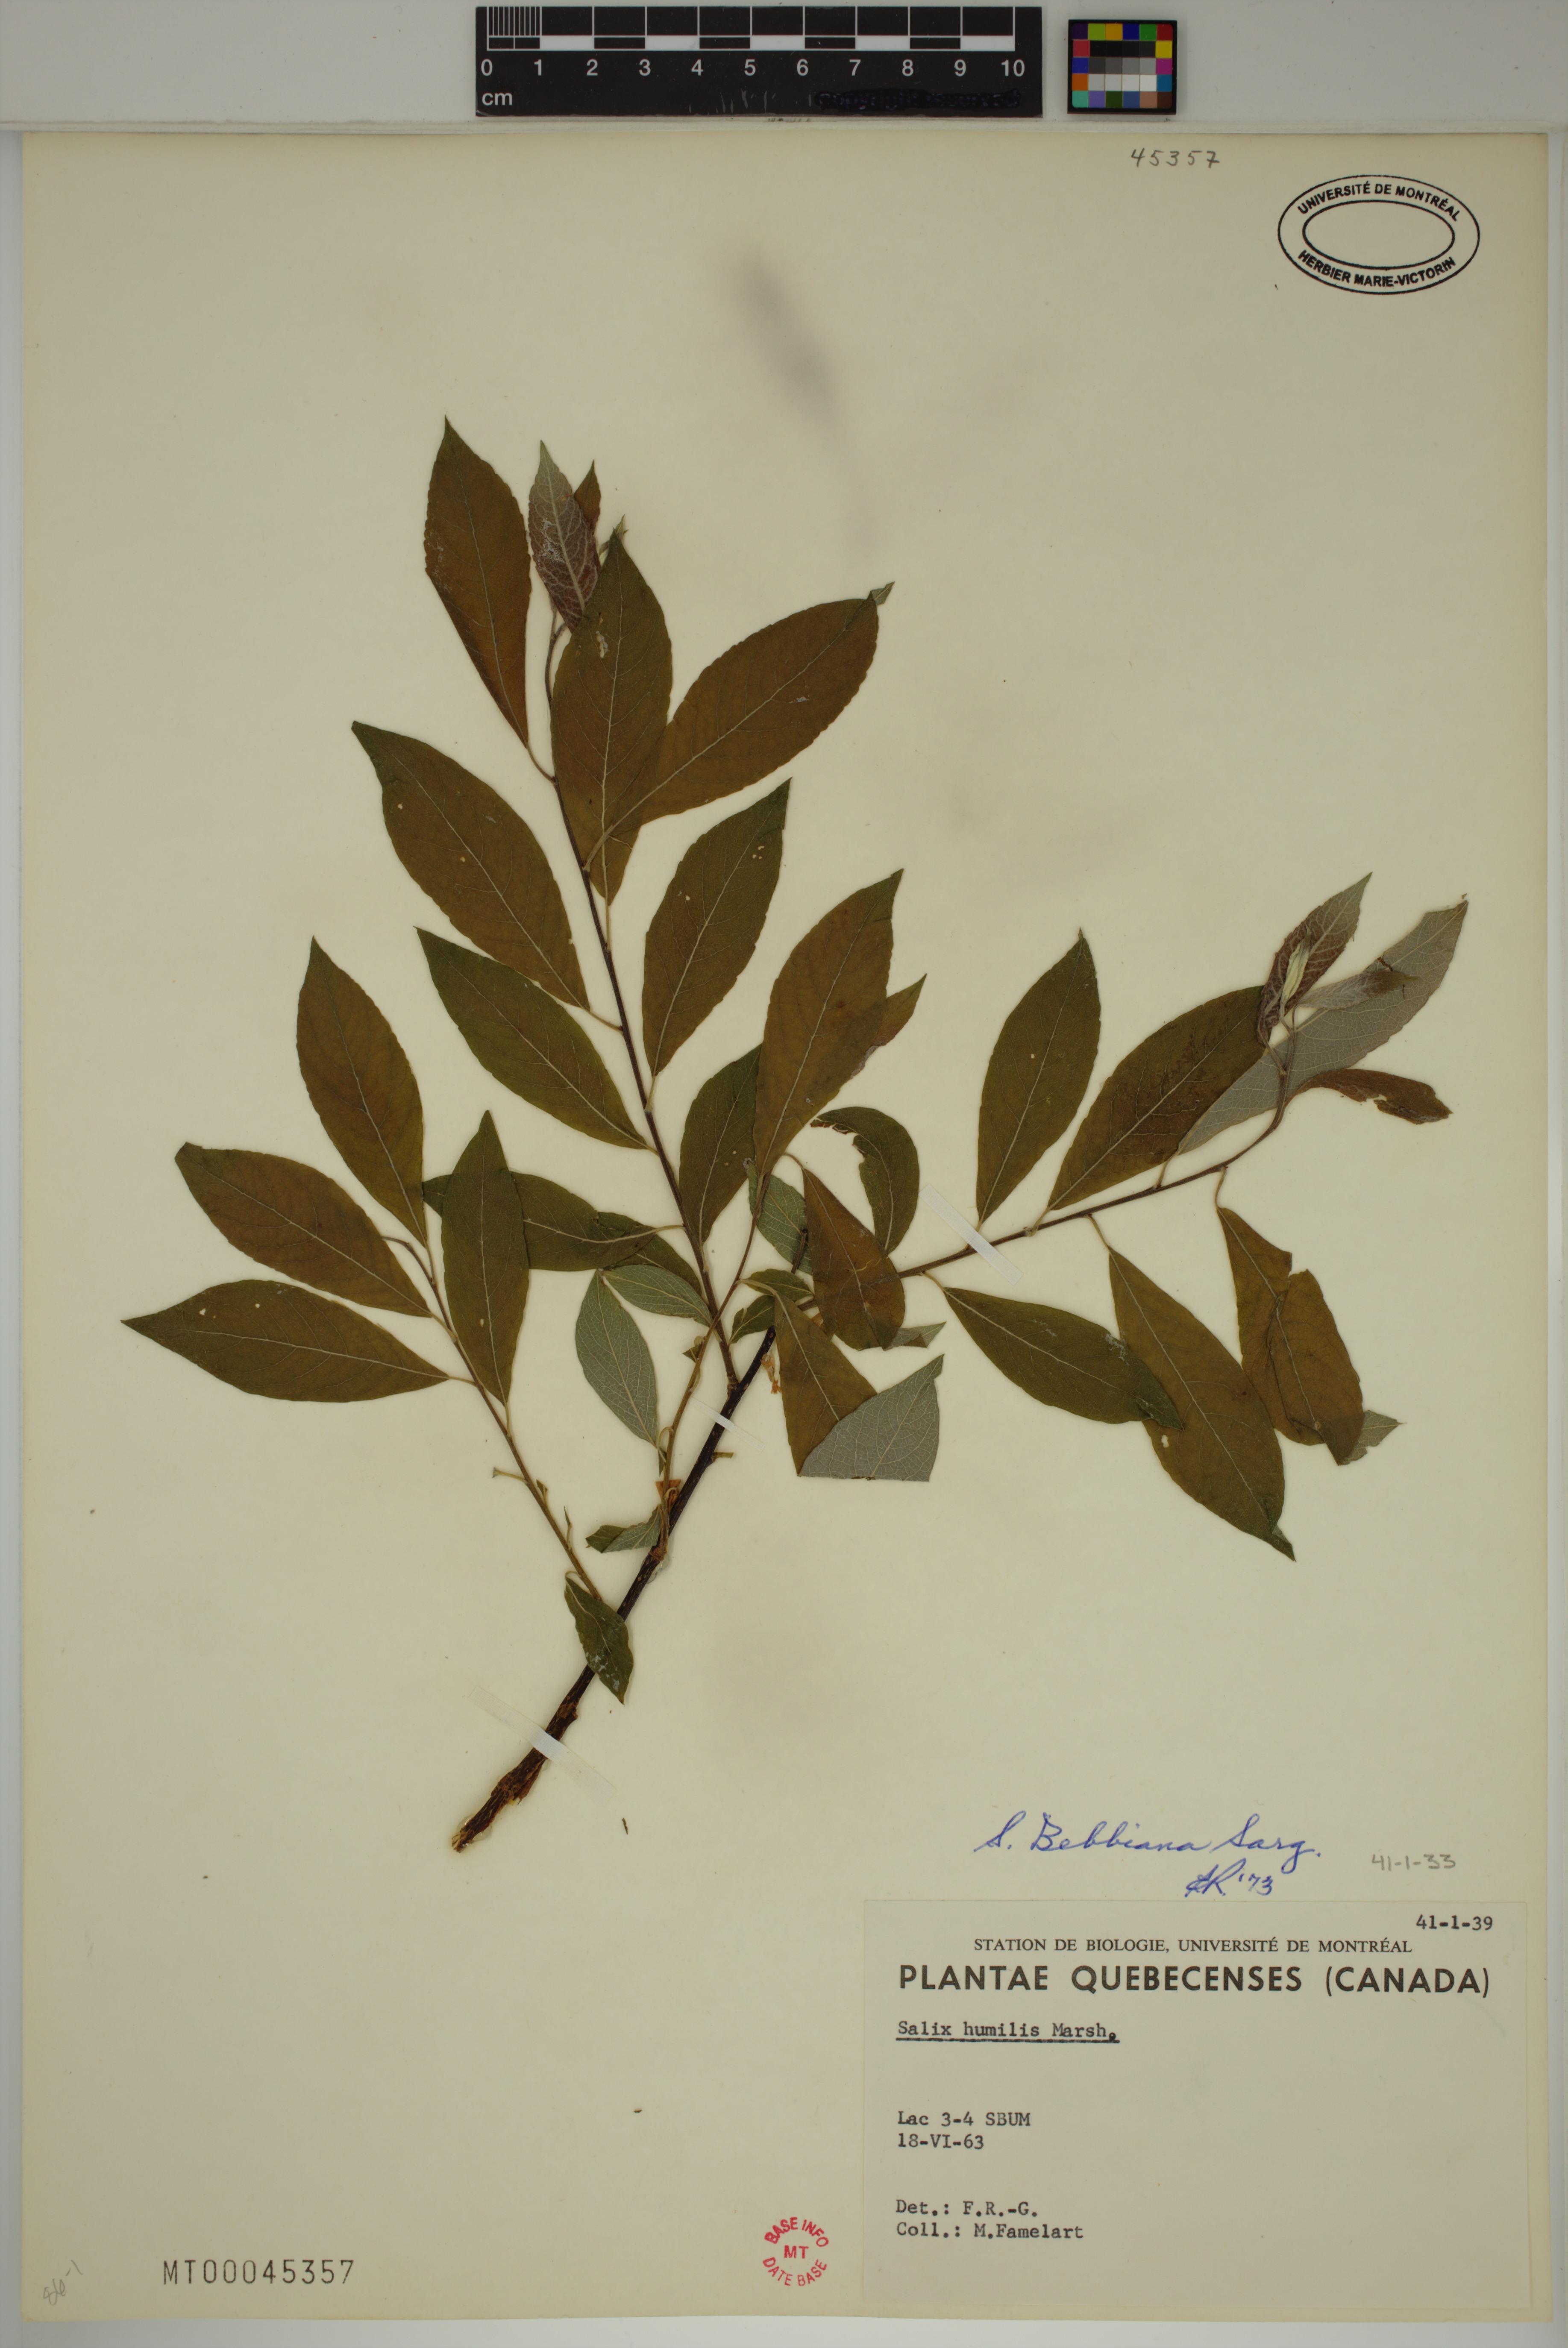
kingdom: Plantae
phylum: Tracheophyta
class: Magnoliopsida
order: Malpighiales
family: Salicaceae
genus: Salix
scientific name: Salix bebbiana
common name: Bebb's willow
